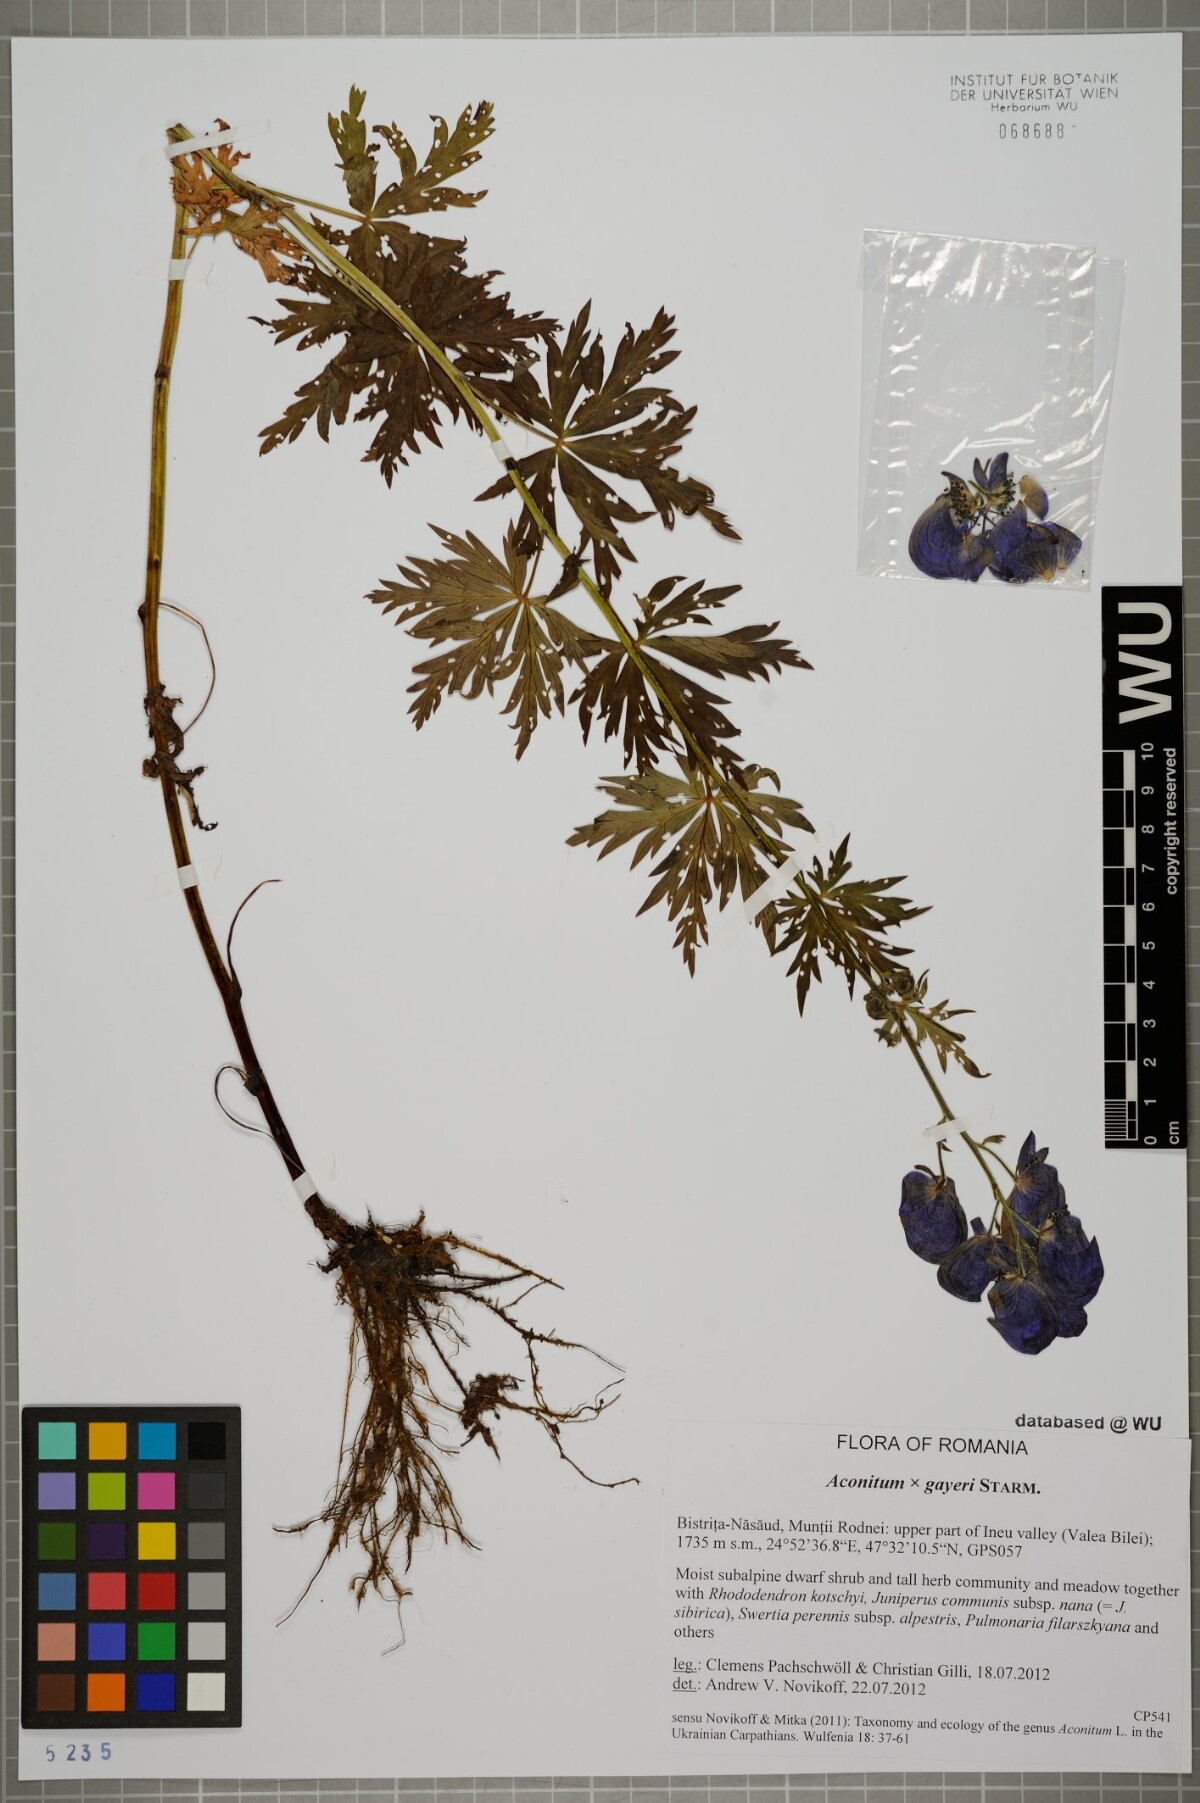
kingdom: Plantae
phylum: Tracheophyta
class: Magnoliopsida
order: Ranunculales
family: Ranunculaceae
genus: Aconitum
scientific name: Aconitum gayeri
